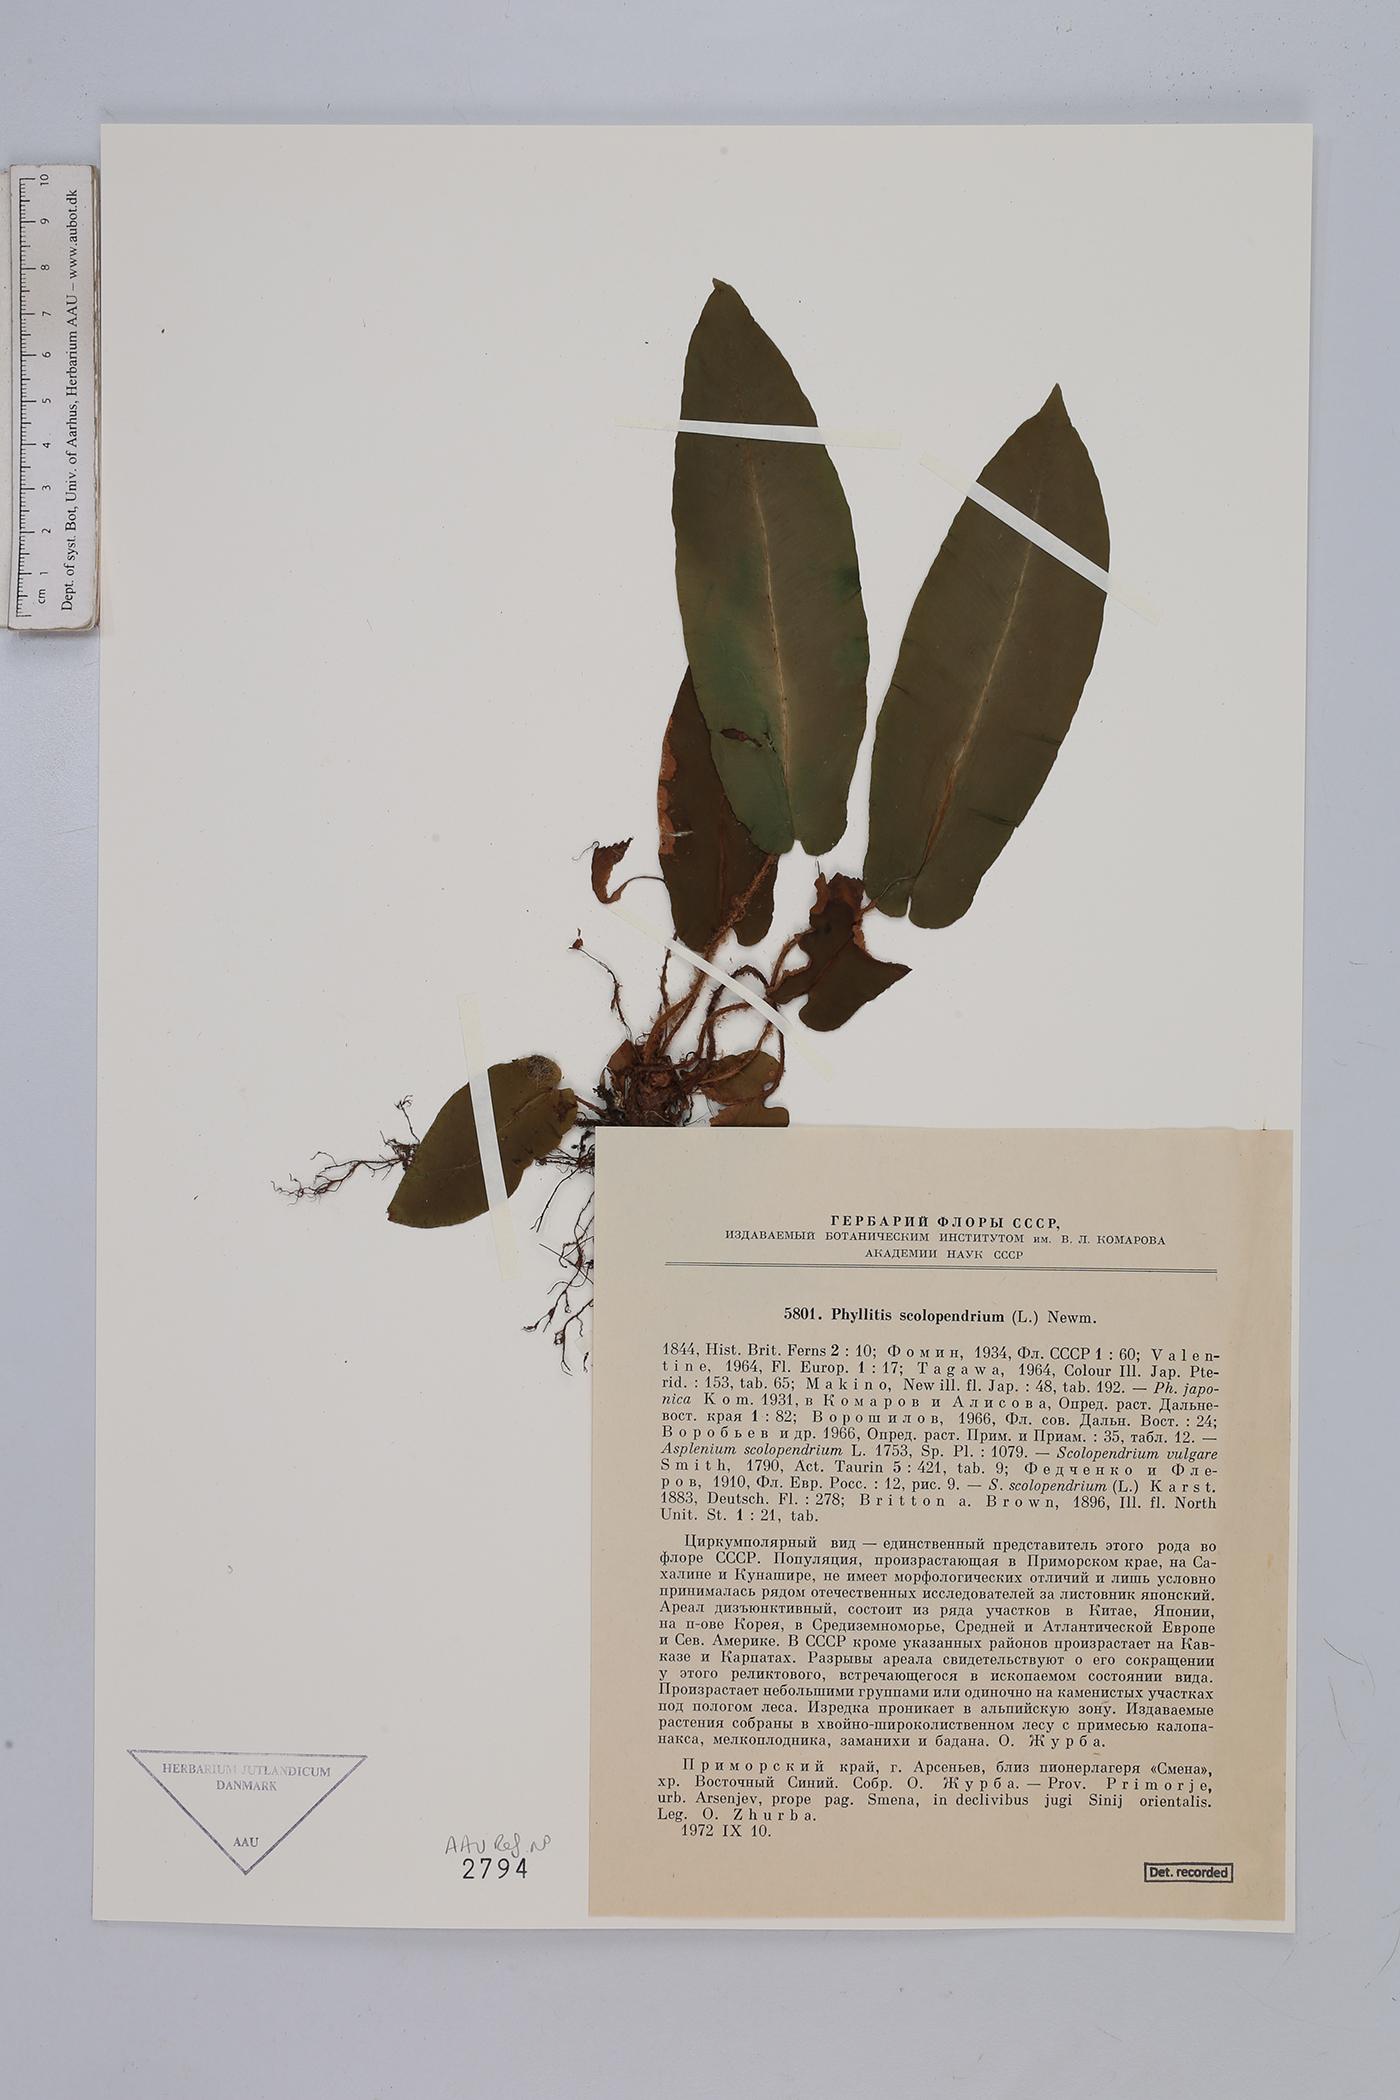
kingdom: Plantae
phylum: Tracheophyta
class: Polypodiopsida
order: Polypodiales
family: Aspleniaceae
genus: Asplenium
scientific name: Asplenium scolopendrium
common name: Hart's-tongue fern
